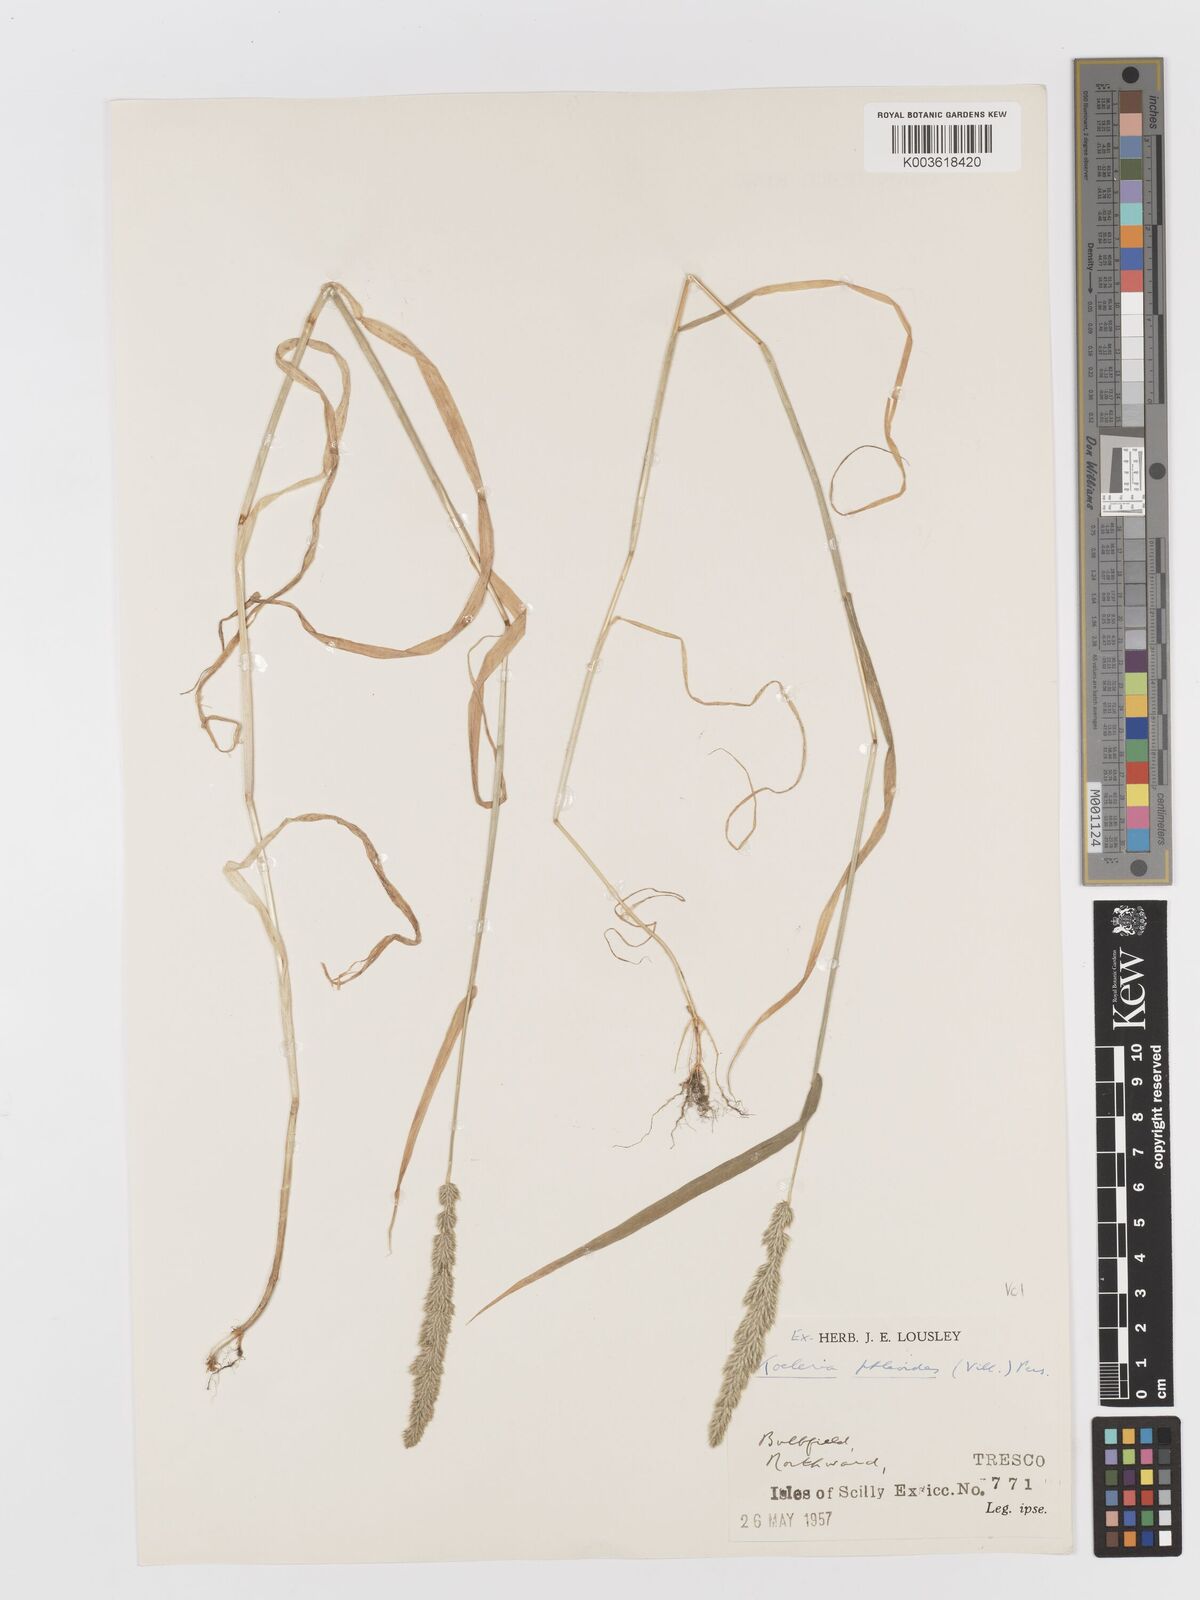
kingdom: Plantae
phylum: Tracheophyta
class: Liliopsida
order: Poales
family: Poaceae
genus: Rostraria
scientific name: Rostraria cristata
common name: Mediterranean hair-grass
